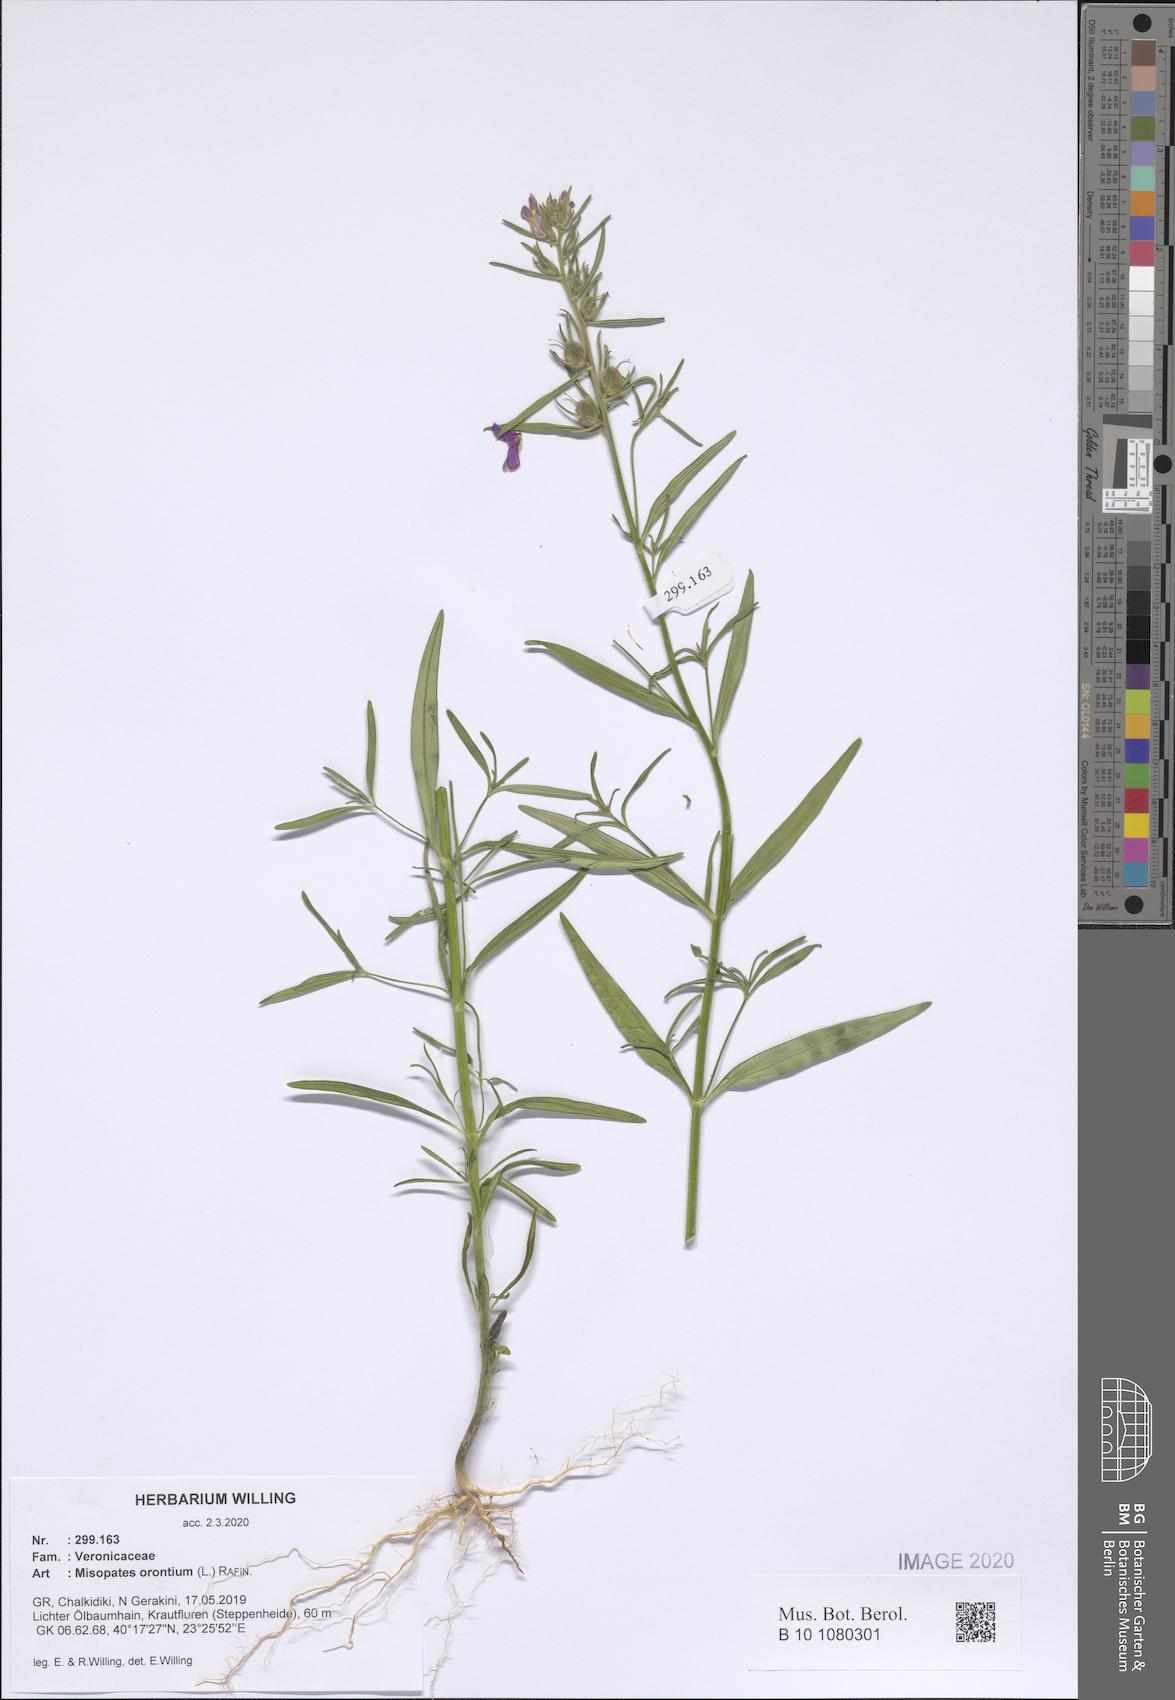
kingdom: Plantae
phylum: Tracheophyta
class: Magnoliopsida
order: Lamiales
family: Plantaginaceae
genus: Misopates
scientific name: Misopates orontium
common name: Weasel's-snout
